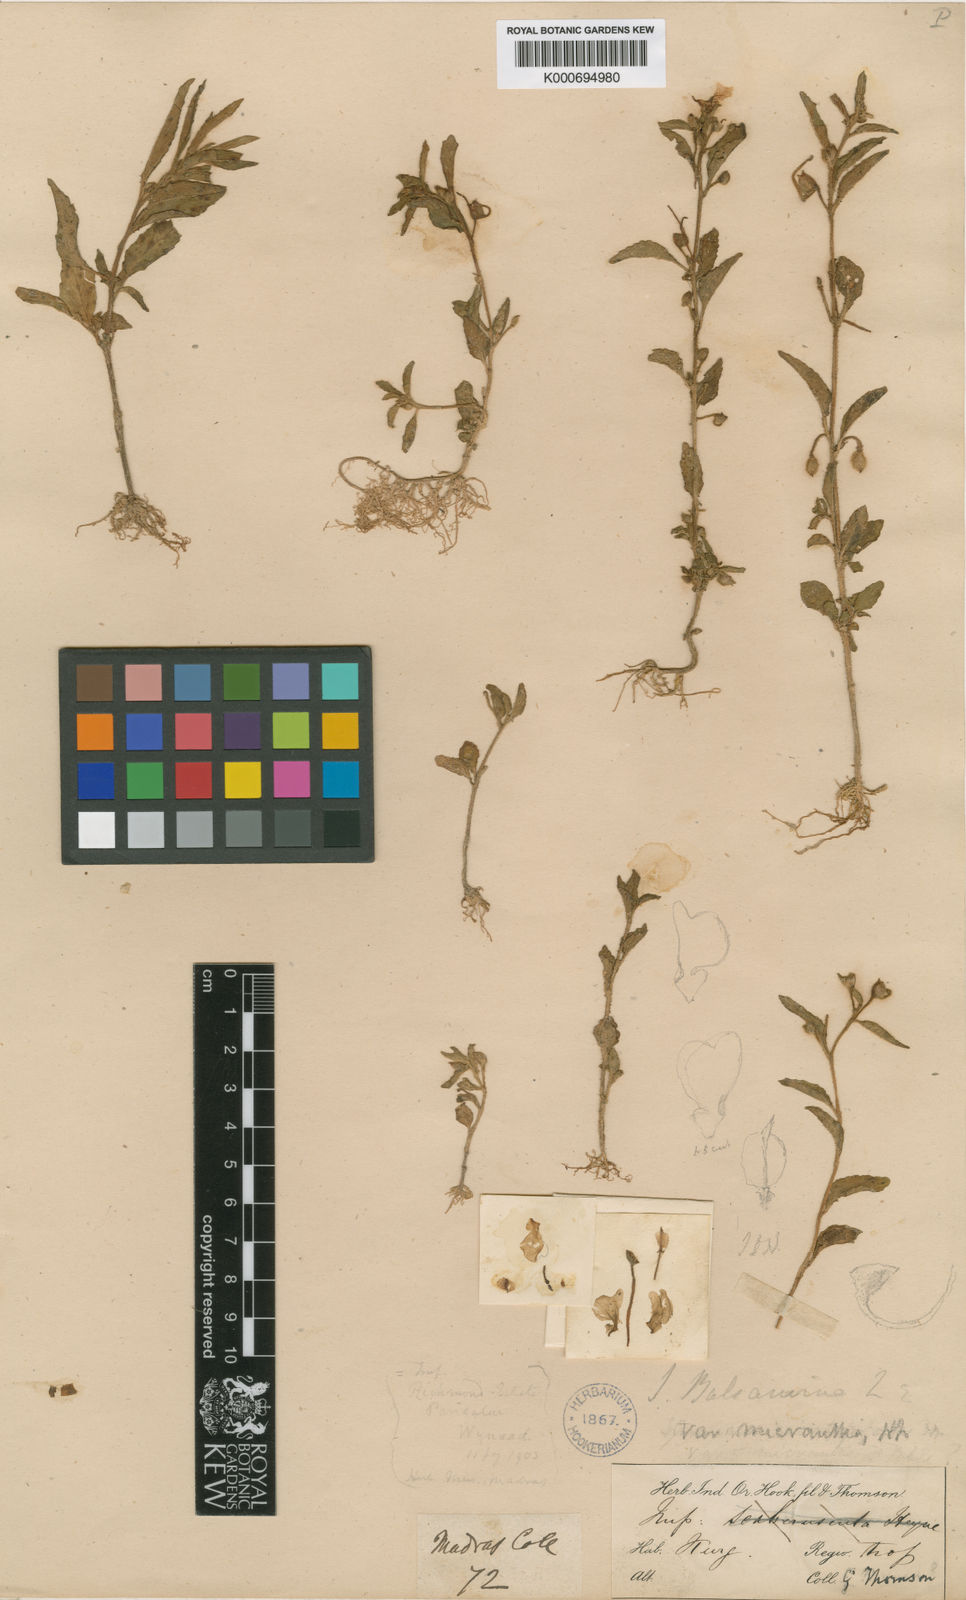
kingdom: Plantae
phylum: Tracheophyta
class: Magnoliopsida
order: Ericales
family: Balsaminaceae
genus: Impatiens
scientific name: Impatiens balsamina
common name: Balsam
